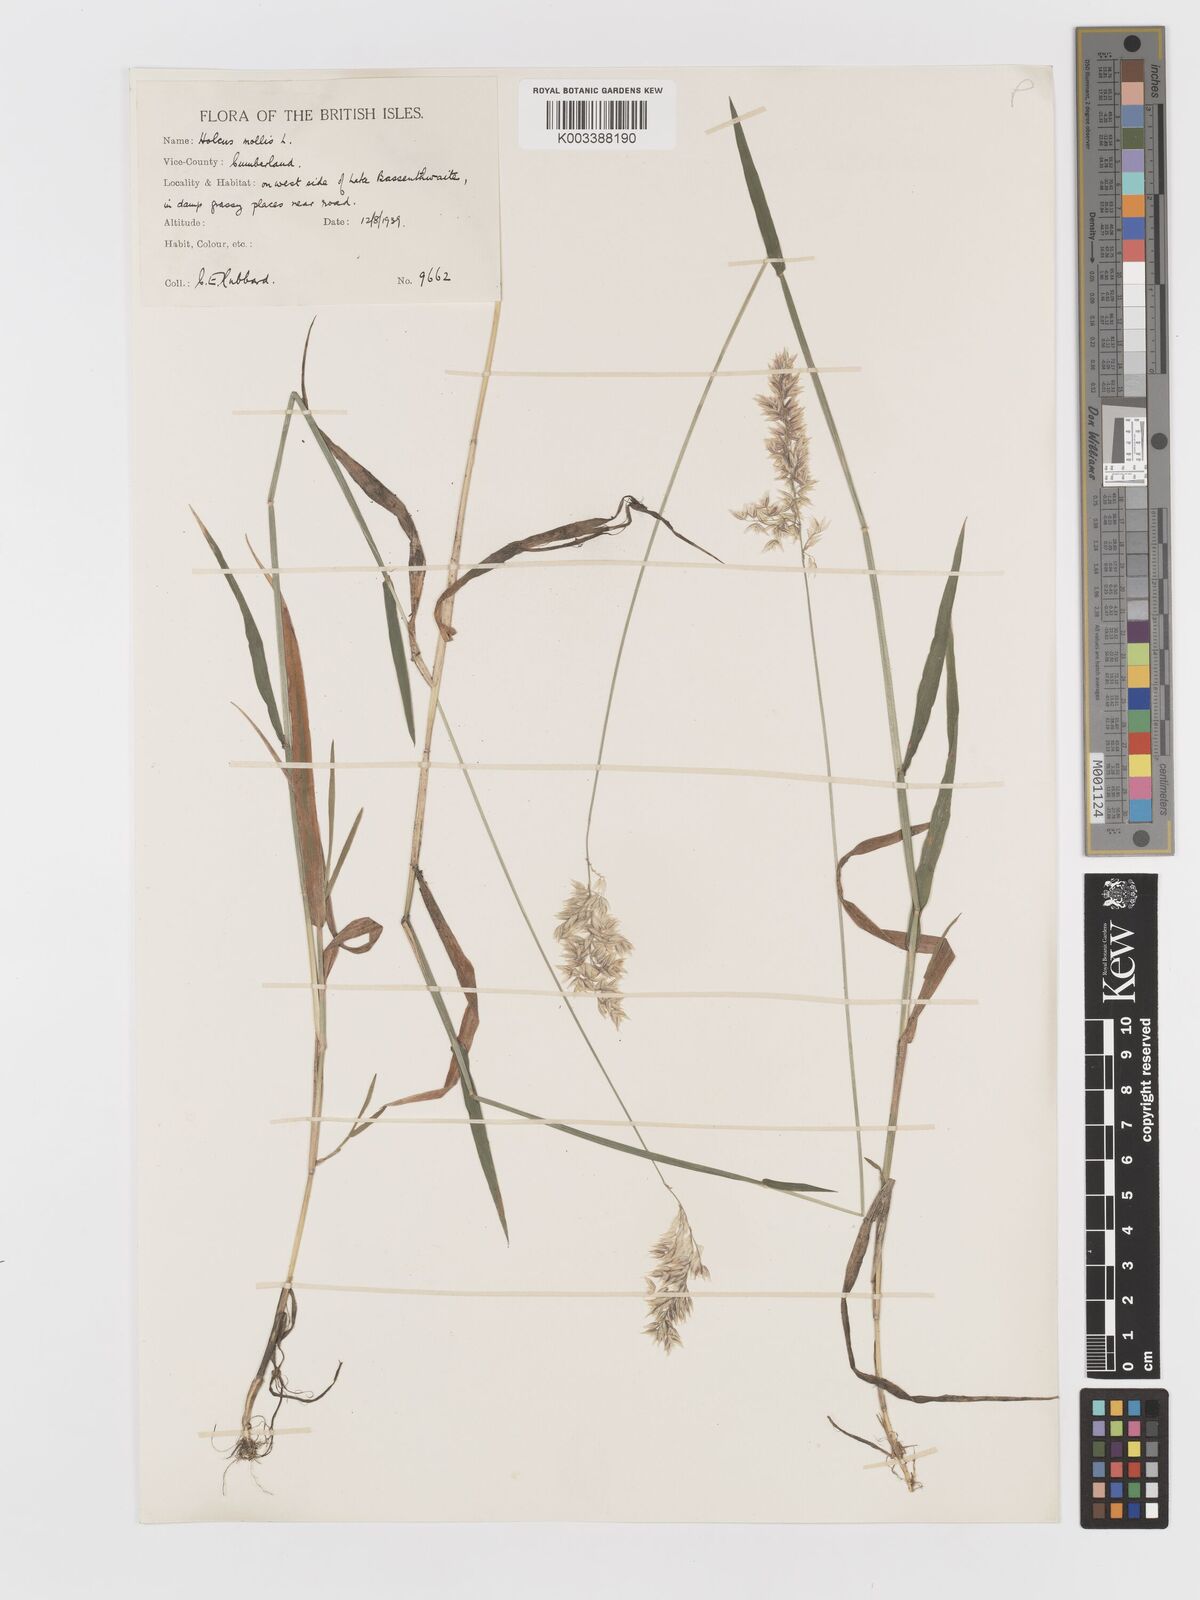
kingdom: Plantae
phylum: Tracheophyta
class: Liliopsida
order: Poales
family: Poaceae
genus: Holcus
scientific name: Holcus mollis
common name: Creeping velvetgrass
